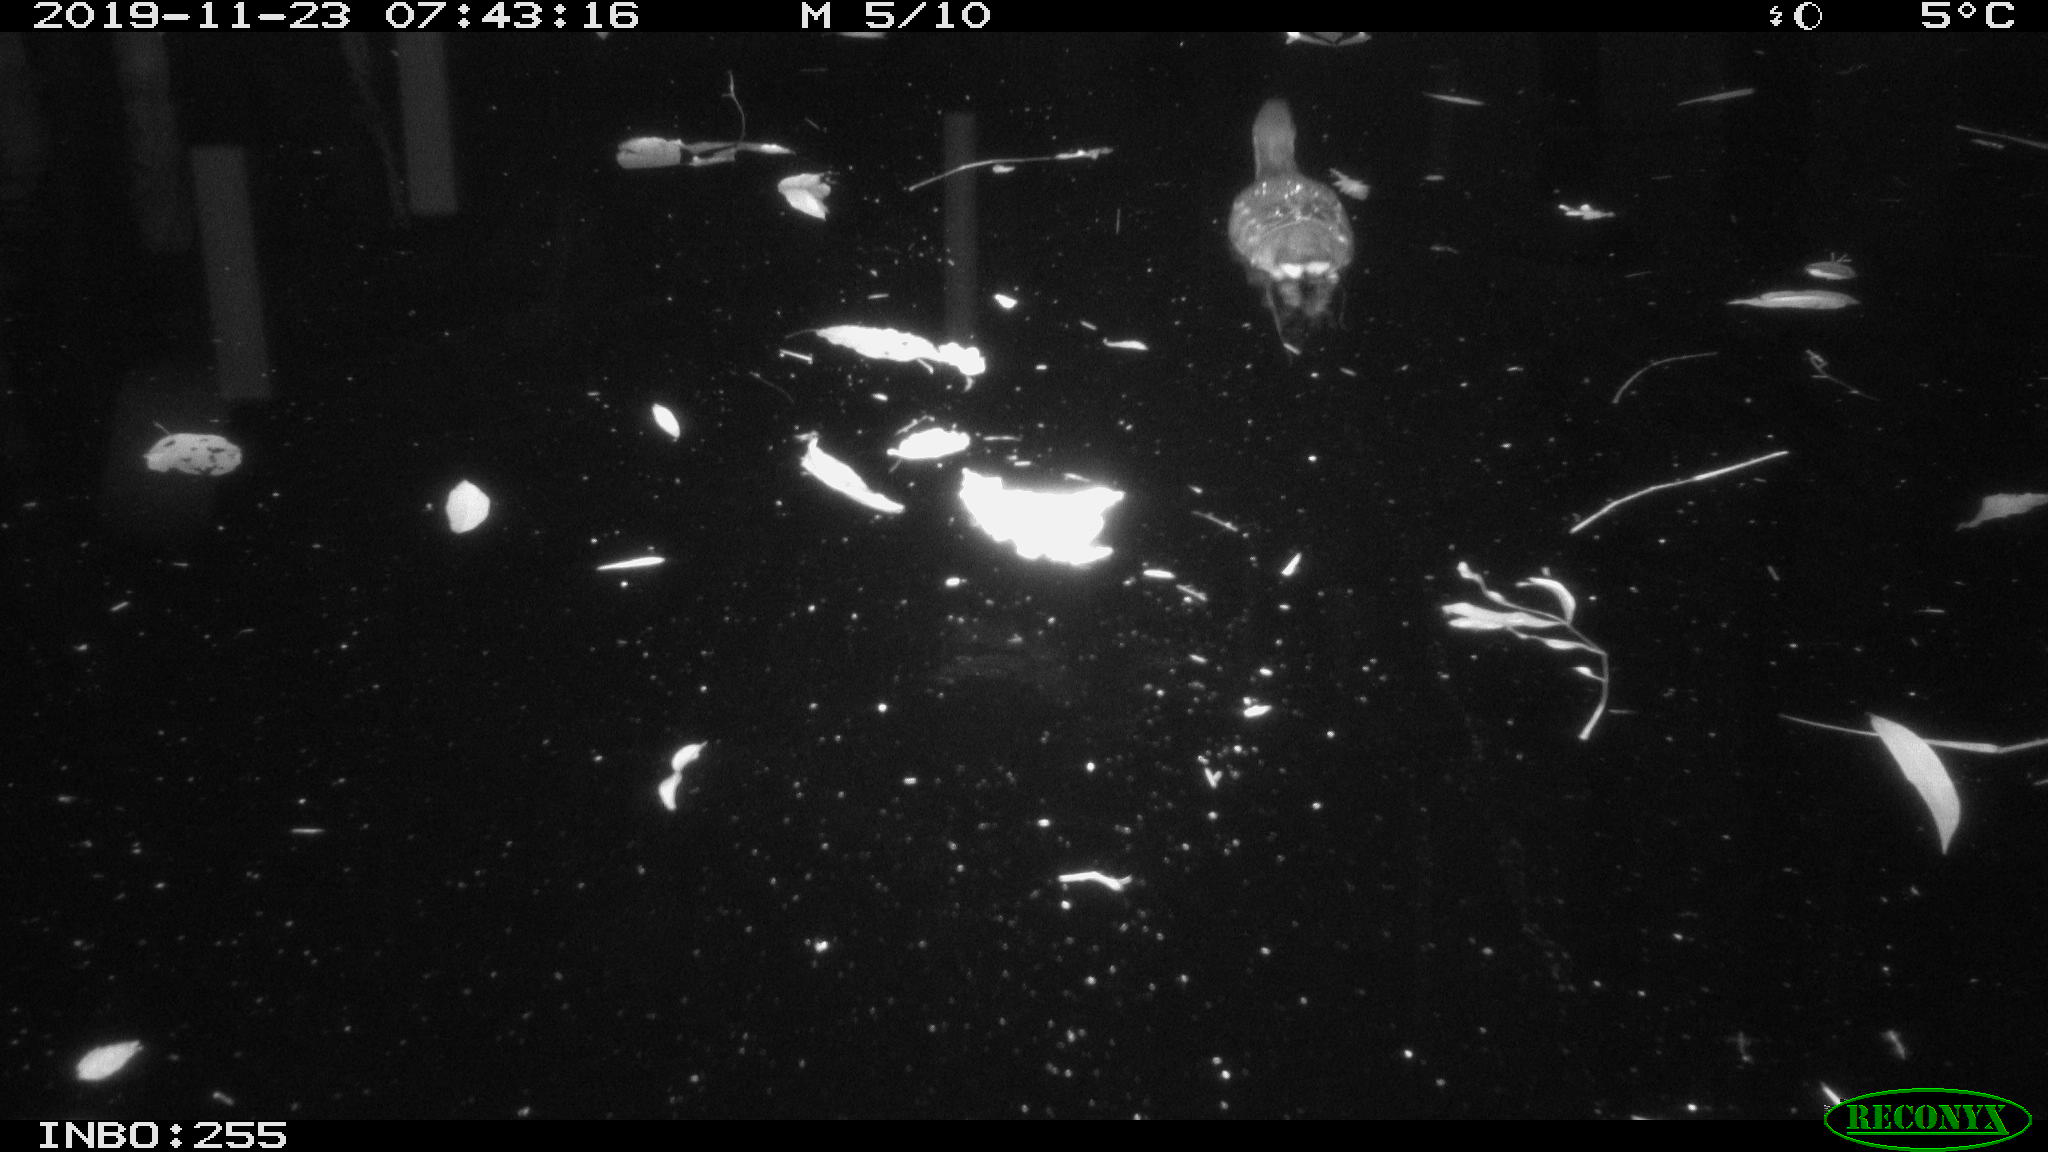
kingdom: Animalia
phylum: Chordata
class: Aves
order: Gruiformes
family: Rallidae
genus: Gallinula
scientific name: Gallinula chloropus
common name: Common moorhen
